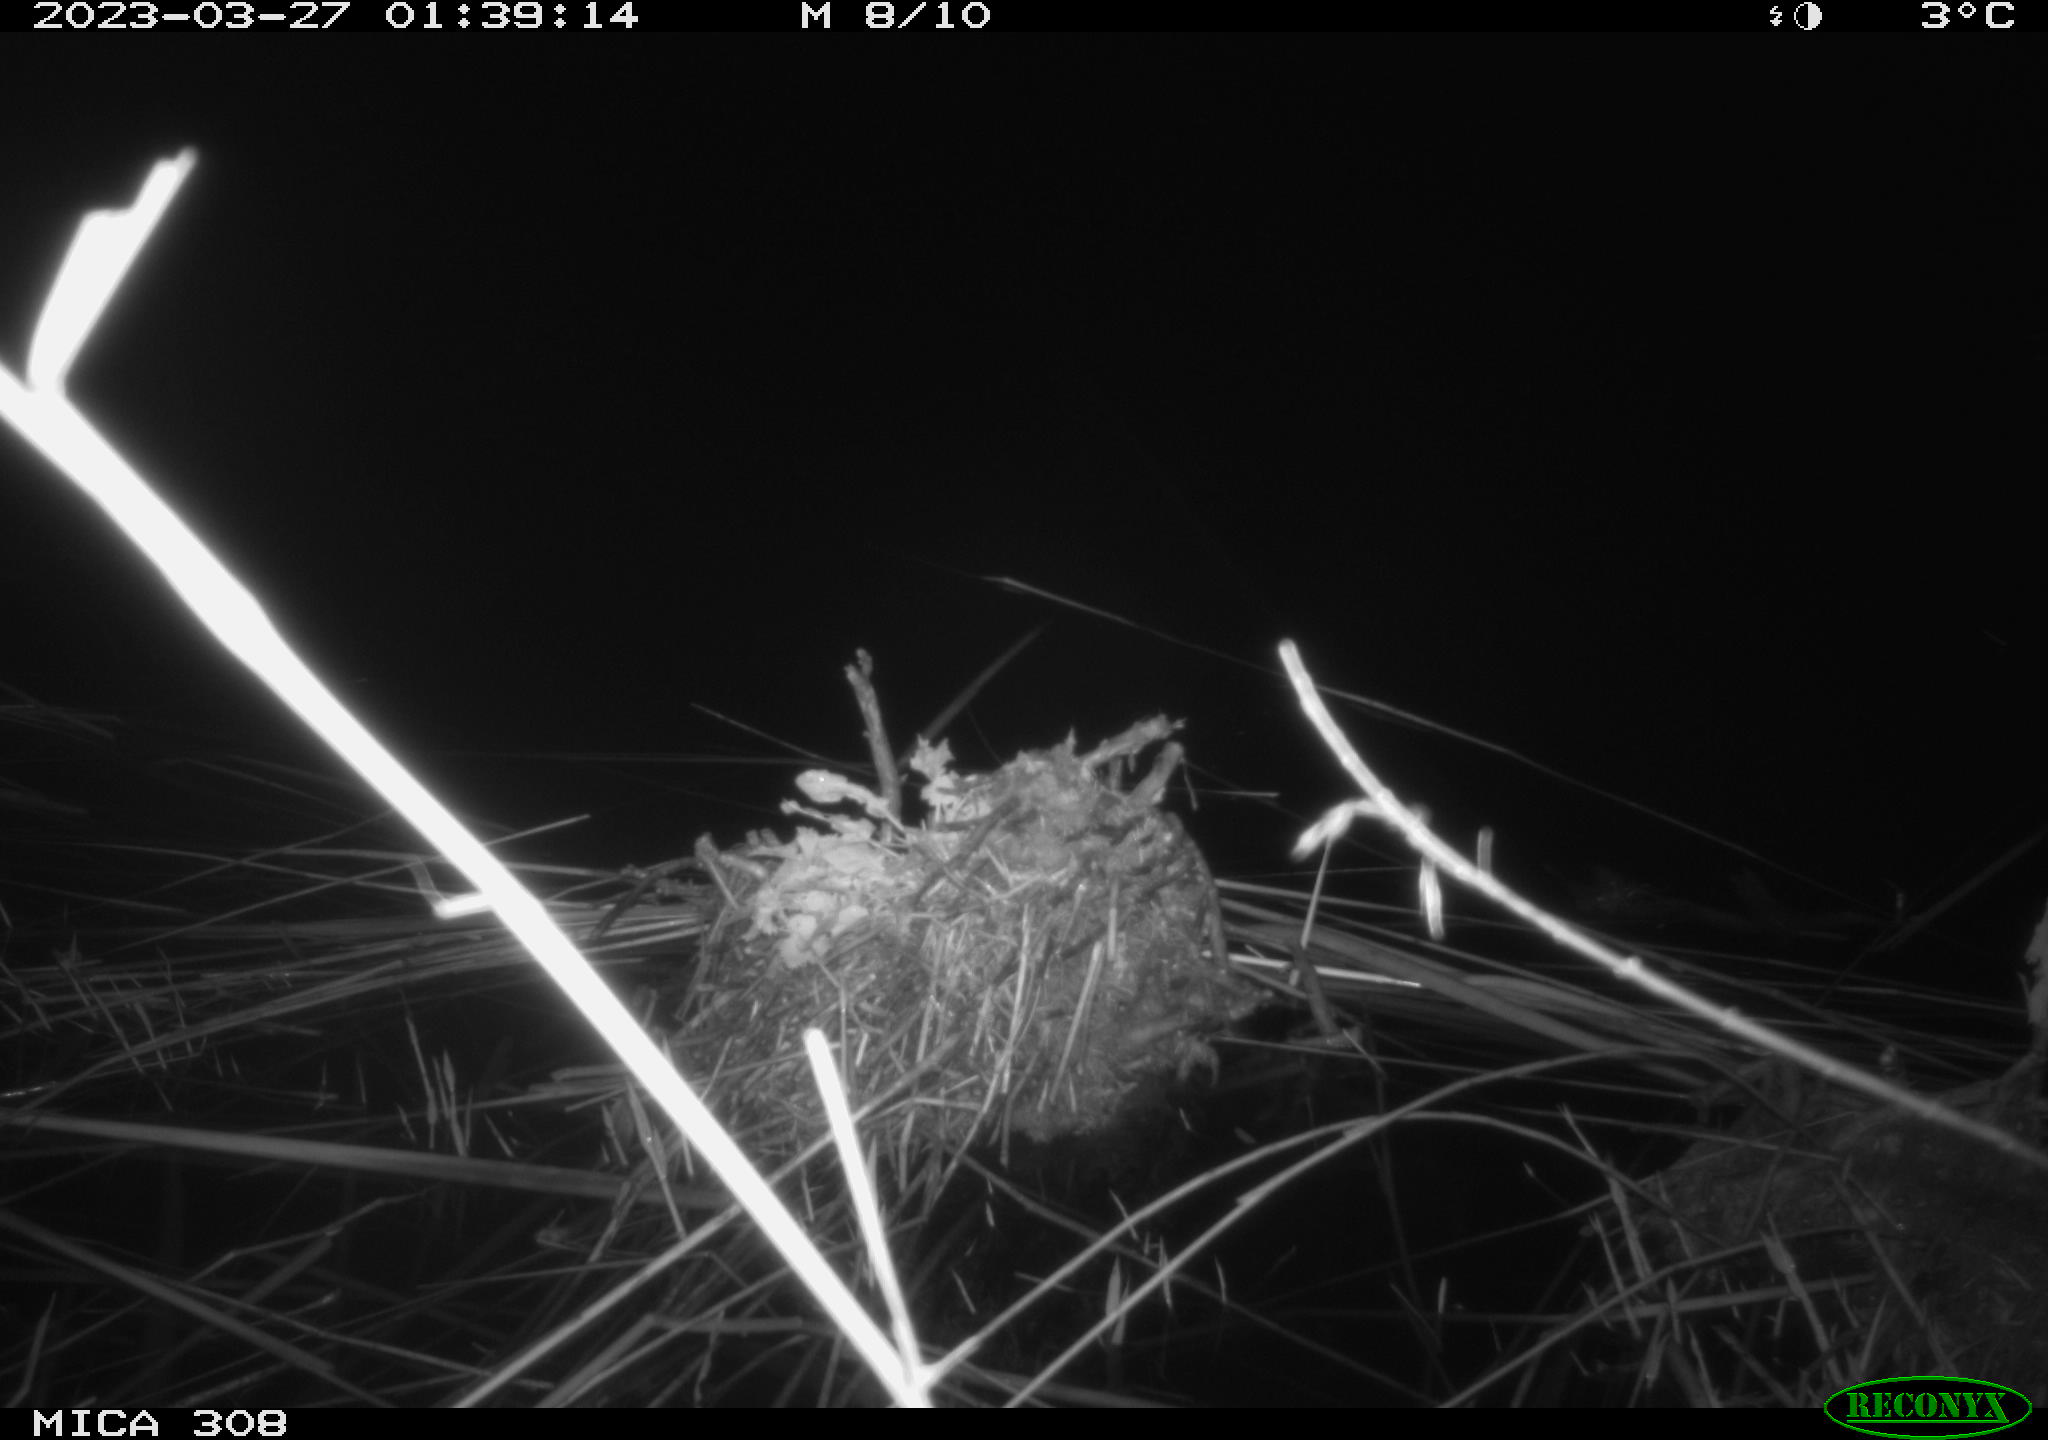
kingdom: Animalia
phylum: Chordata
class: Aves
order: Anseriformes
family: Anatidae
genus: Anas
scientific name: Anas
